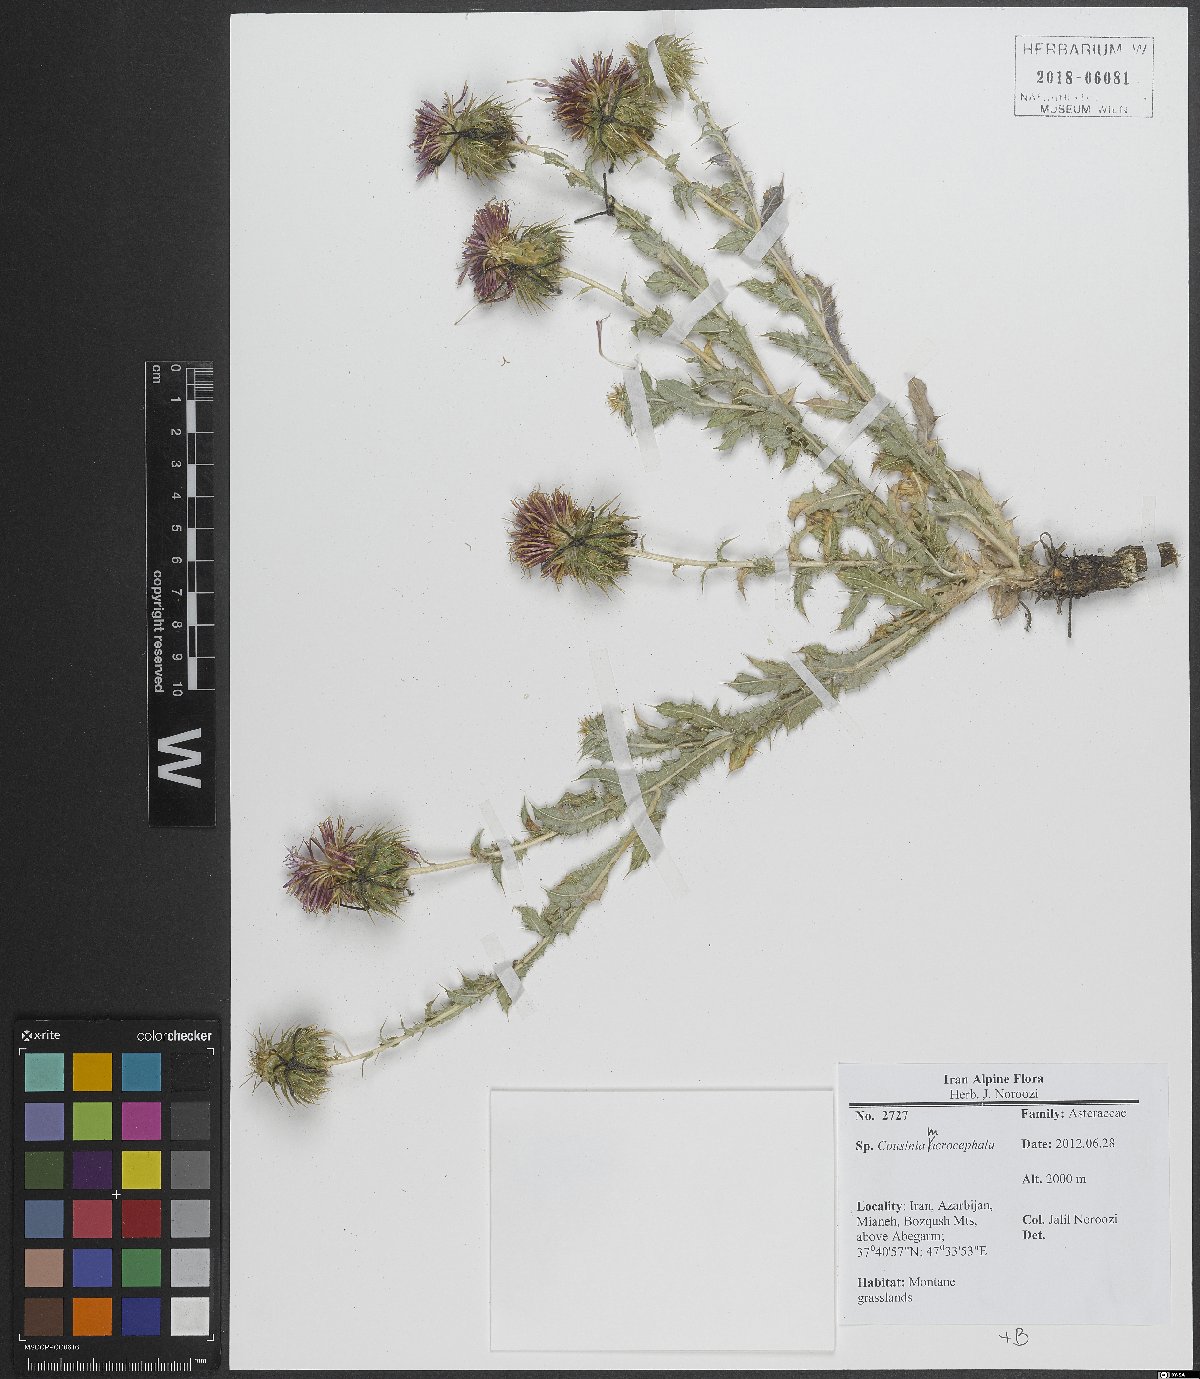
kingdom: Plantae
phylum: Tracheophyta
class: Magnoliopsida
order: Asterales
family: Asteraceae
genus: Cousinia
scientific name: Cousinia macrocephala
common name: Macrocephalous cousinia
